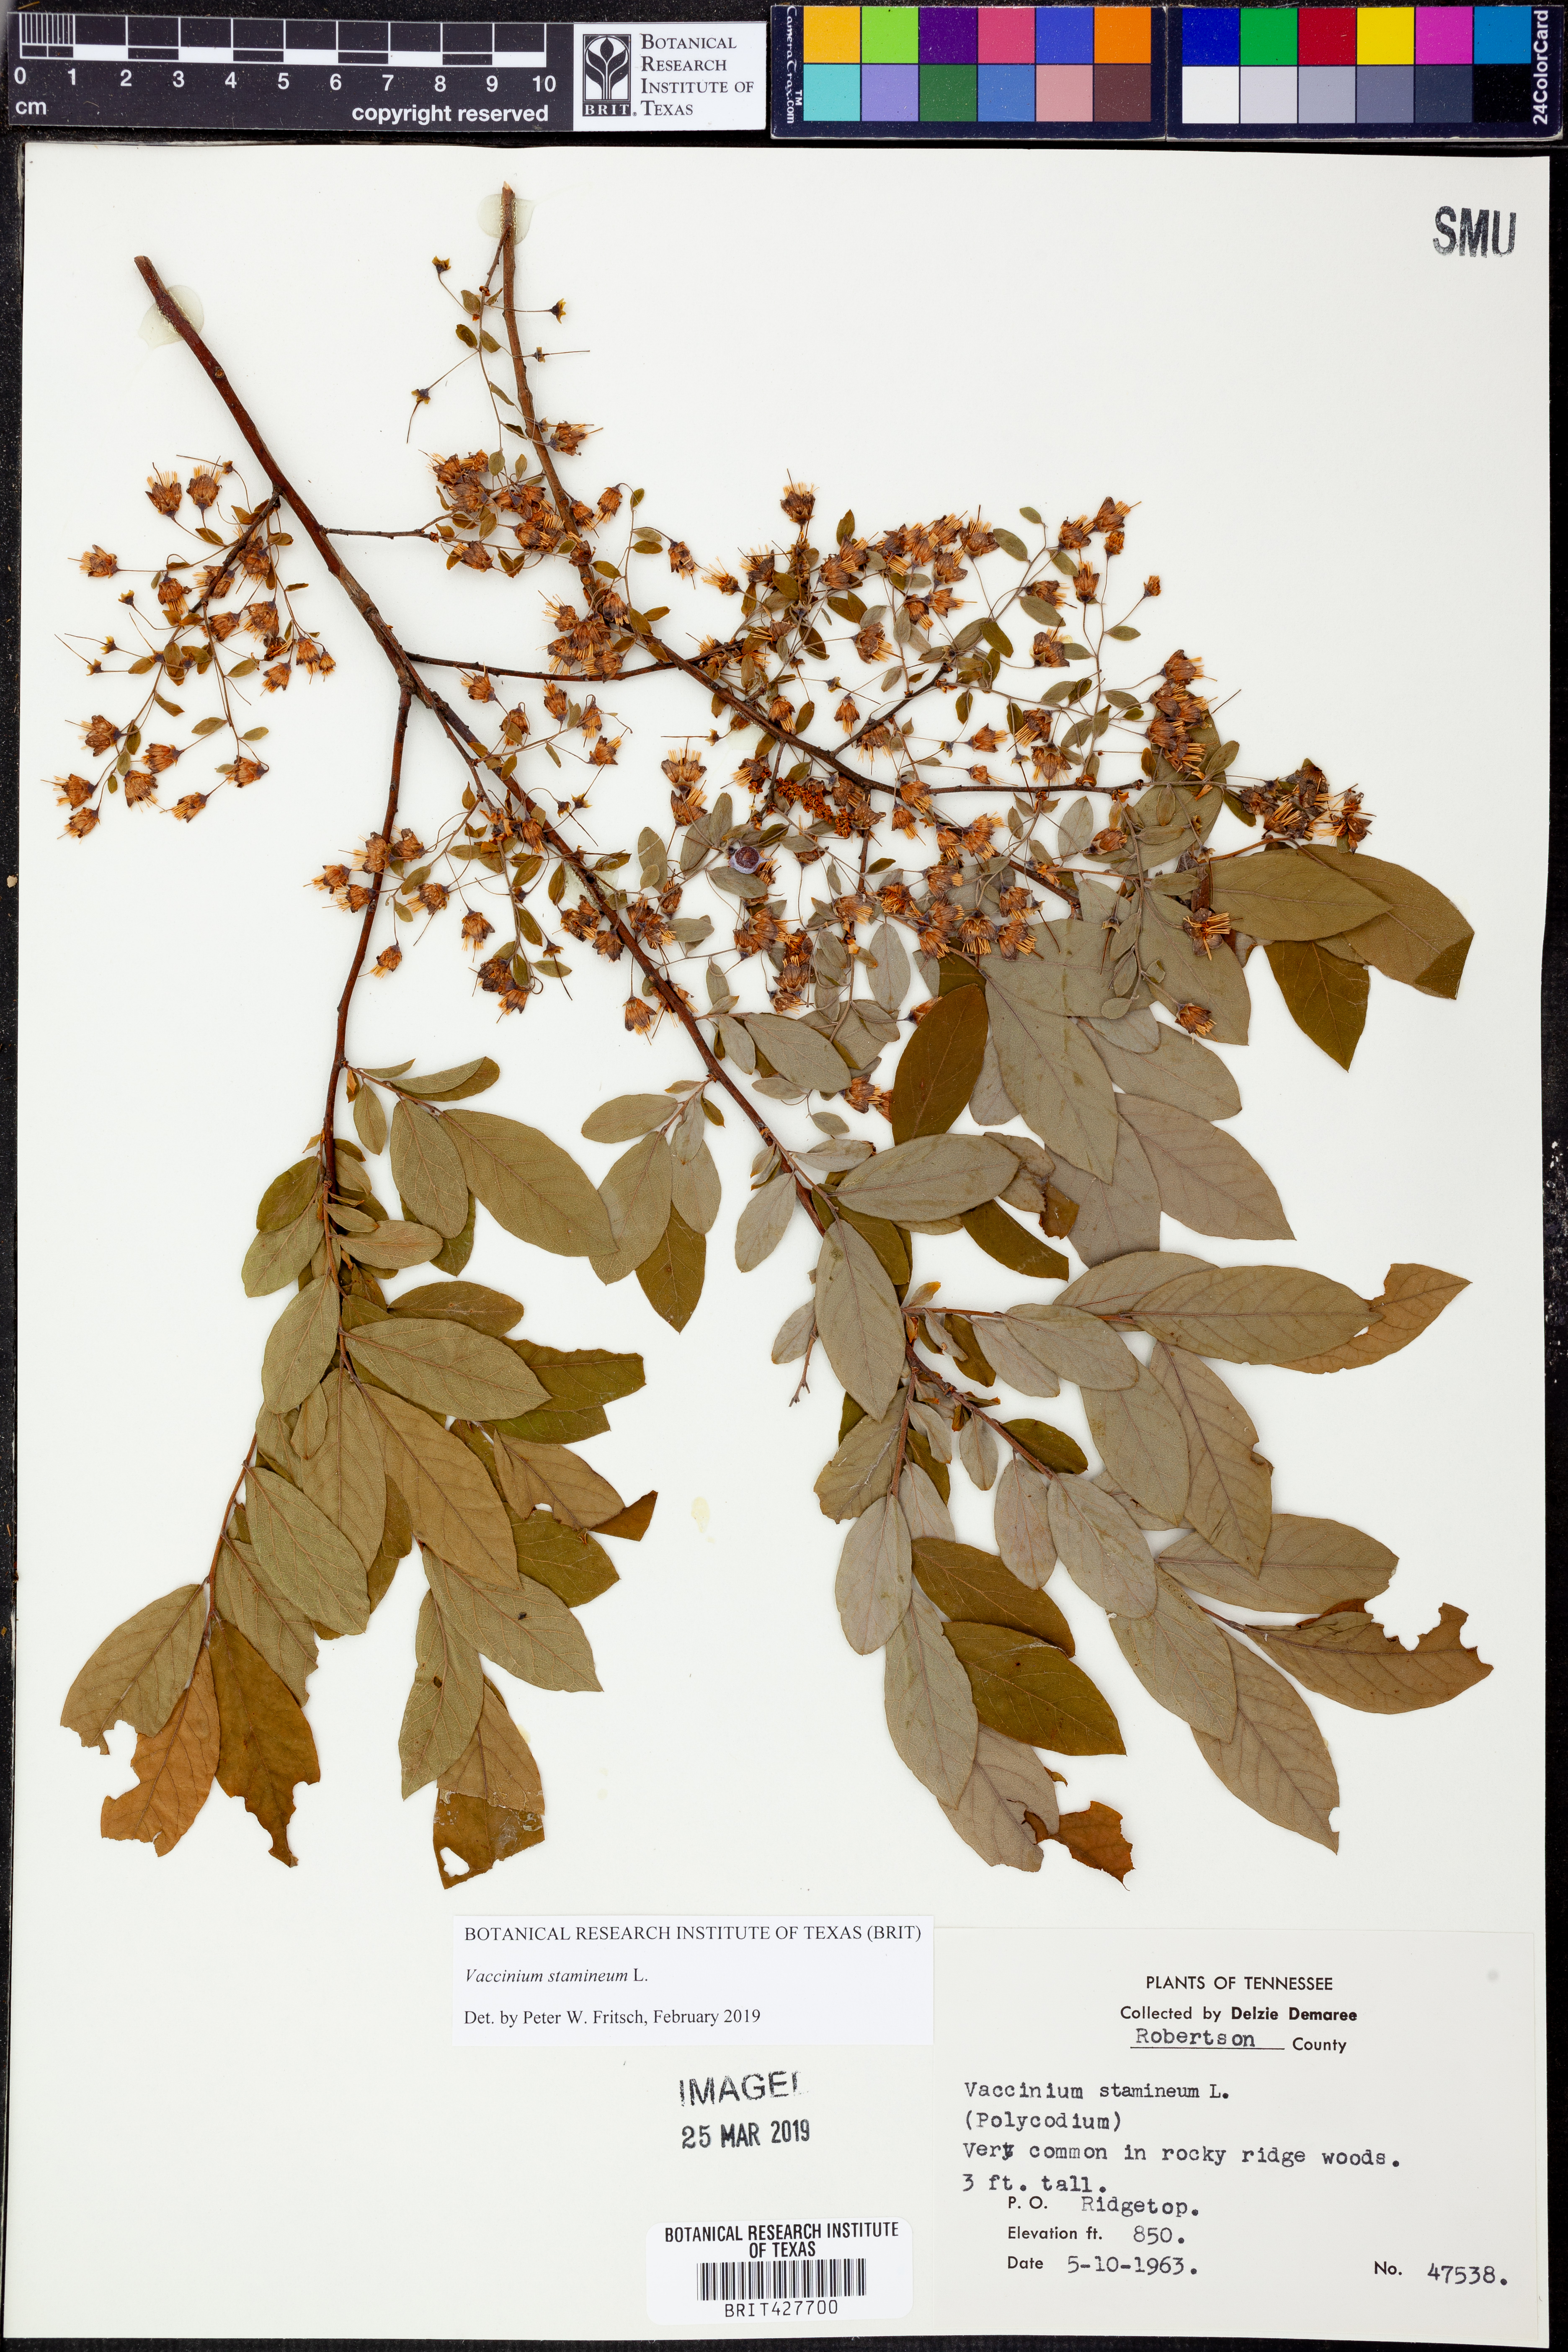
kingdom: Plantae
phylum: Tracheophyta
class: Magnoliopsida
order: Ericales
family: Ericaceae
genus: Vaccinium
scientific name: Vaccinium stamineum
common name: Deerberry
